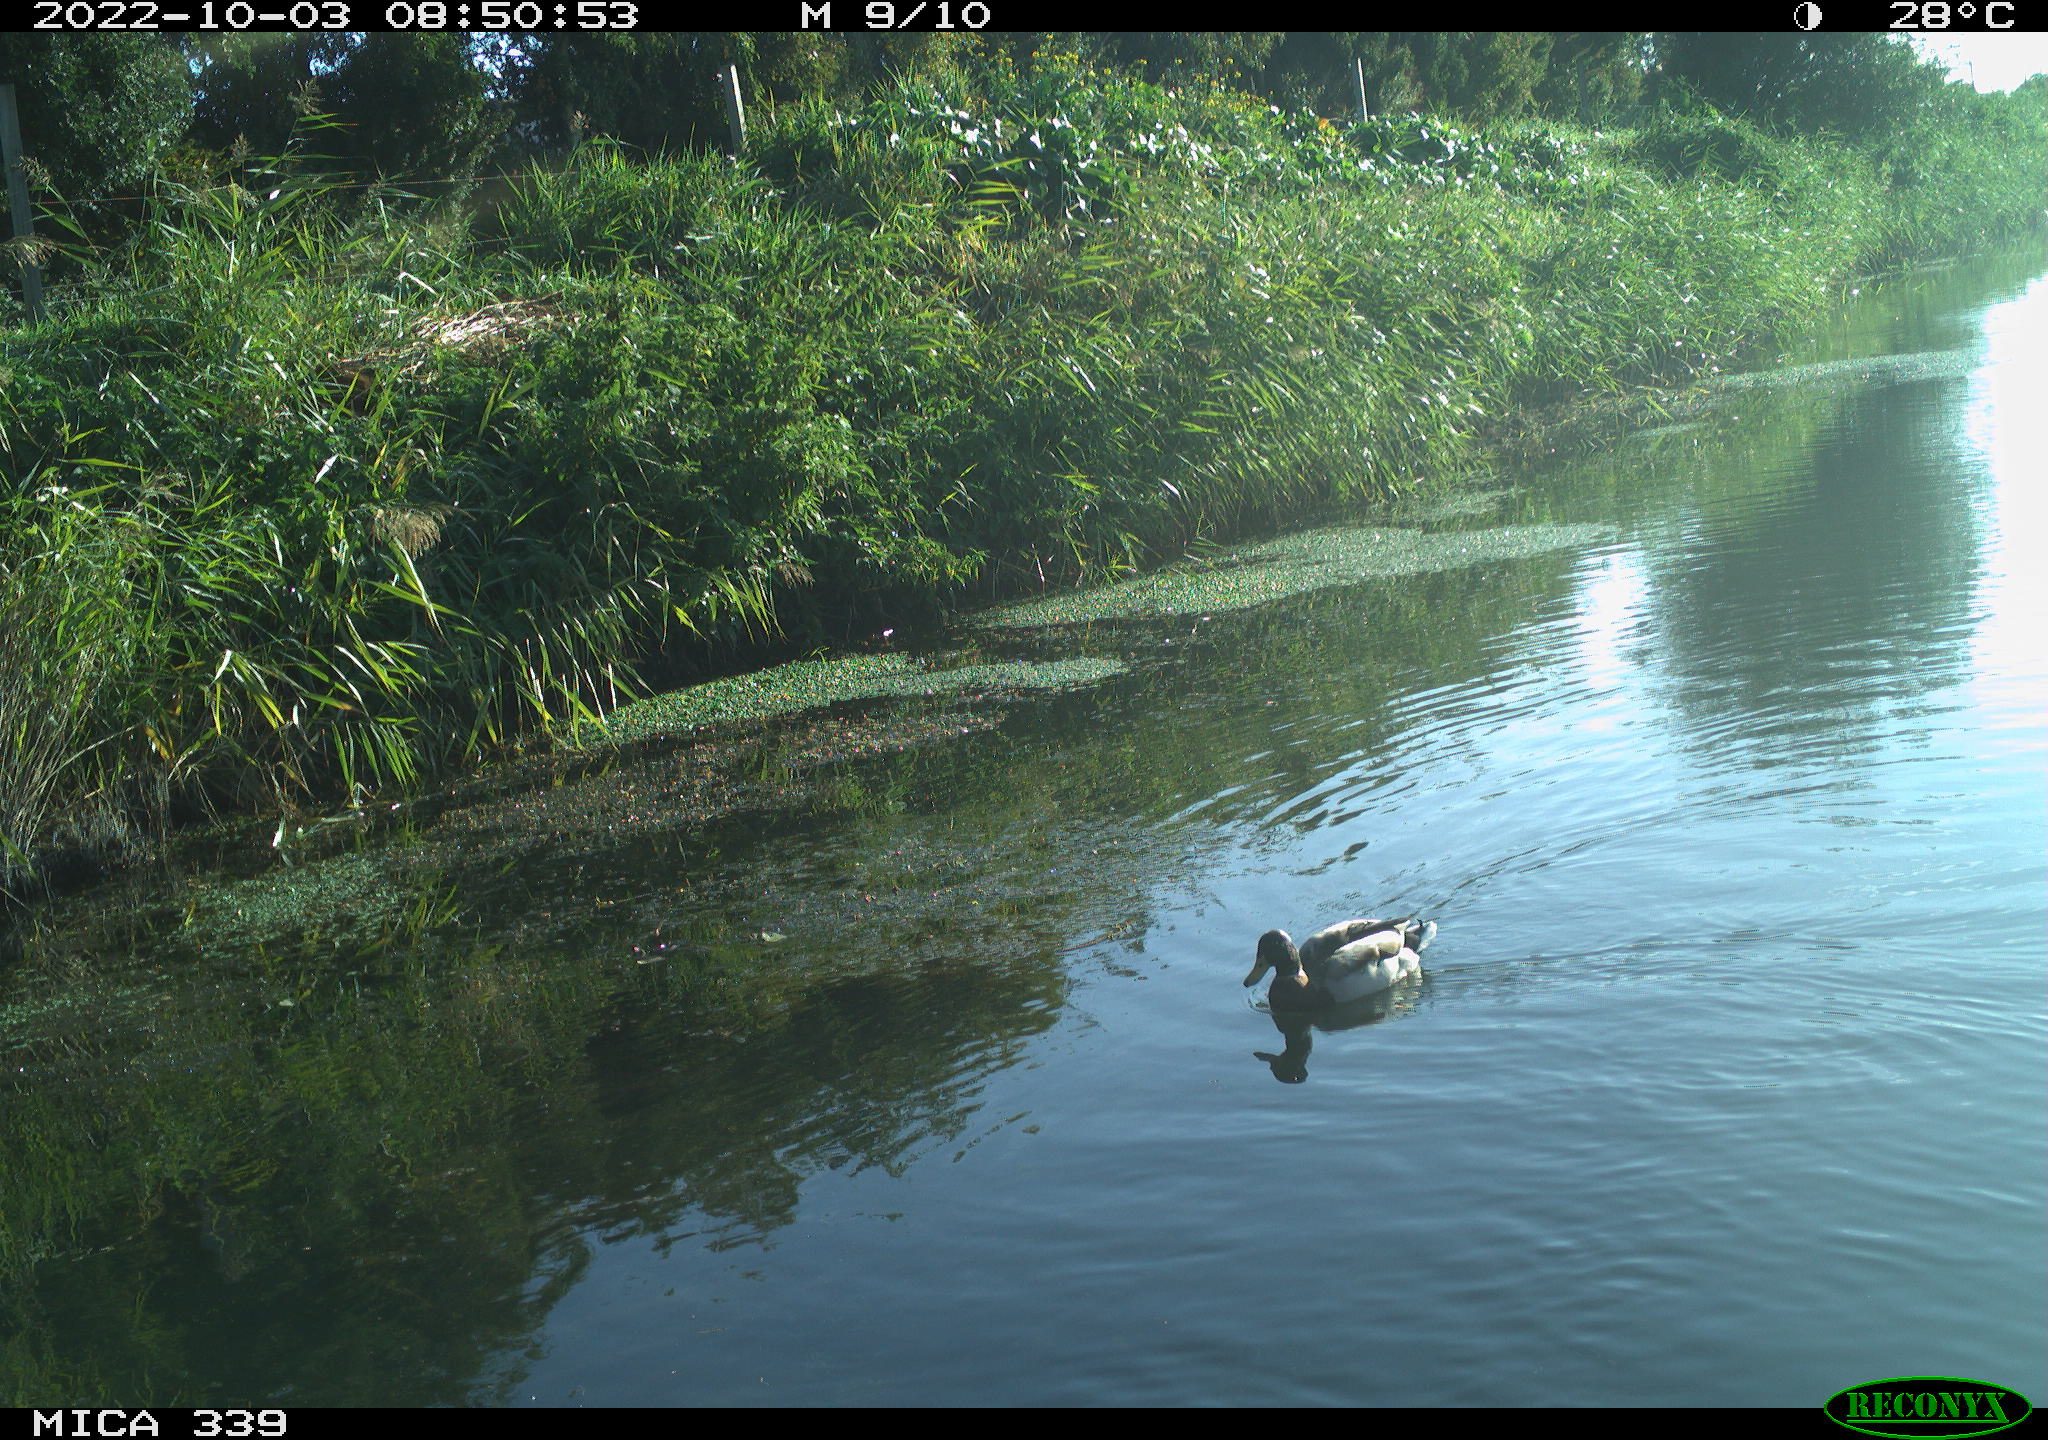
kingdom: Animalia
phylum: Chordata
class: Aves
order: Anseriformes
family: Anatidae
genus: Anas
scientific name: Anas platyrhynchos
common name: Mallard
